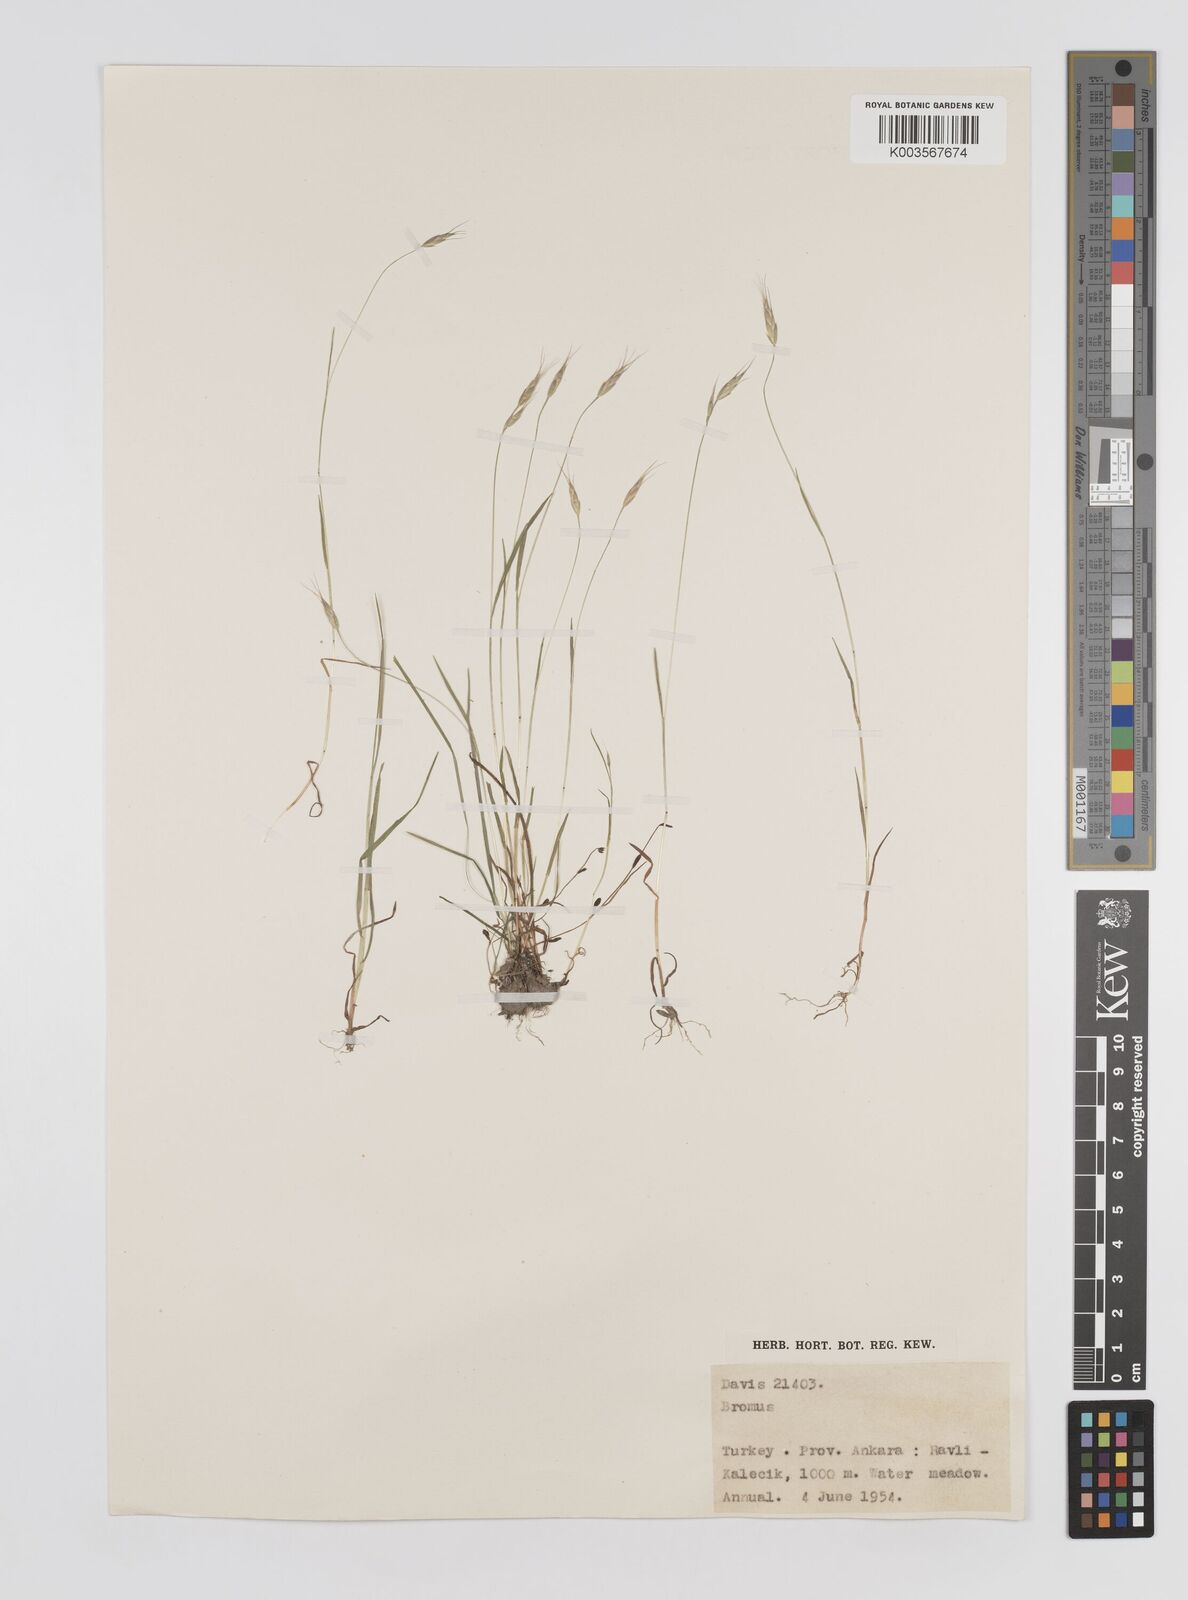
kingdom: Plantae
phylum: Tracheophyta
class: Liliopsida
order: Poales
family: Poaceae
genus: Bromus
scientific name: Bromus
